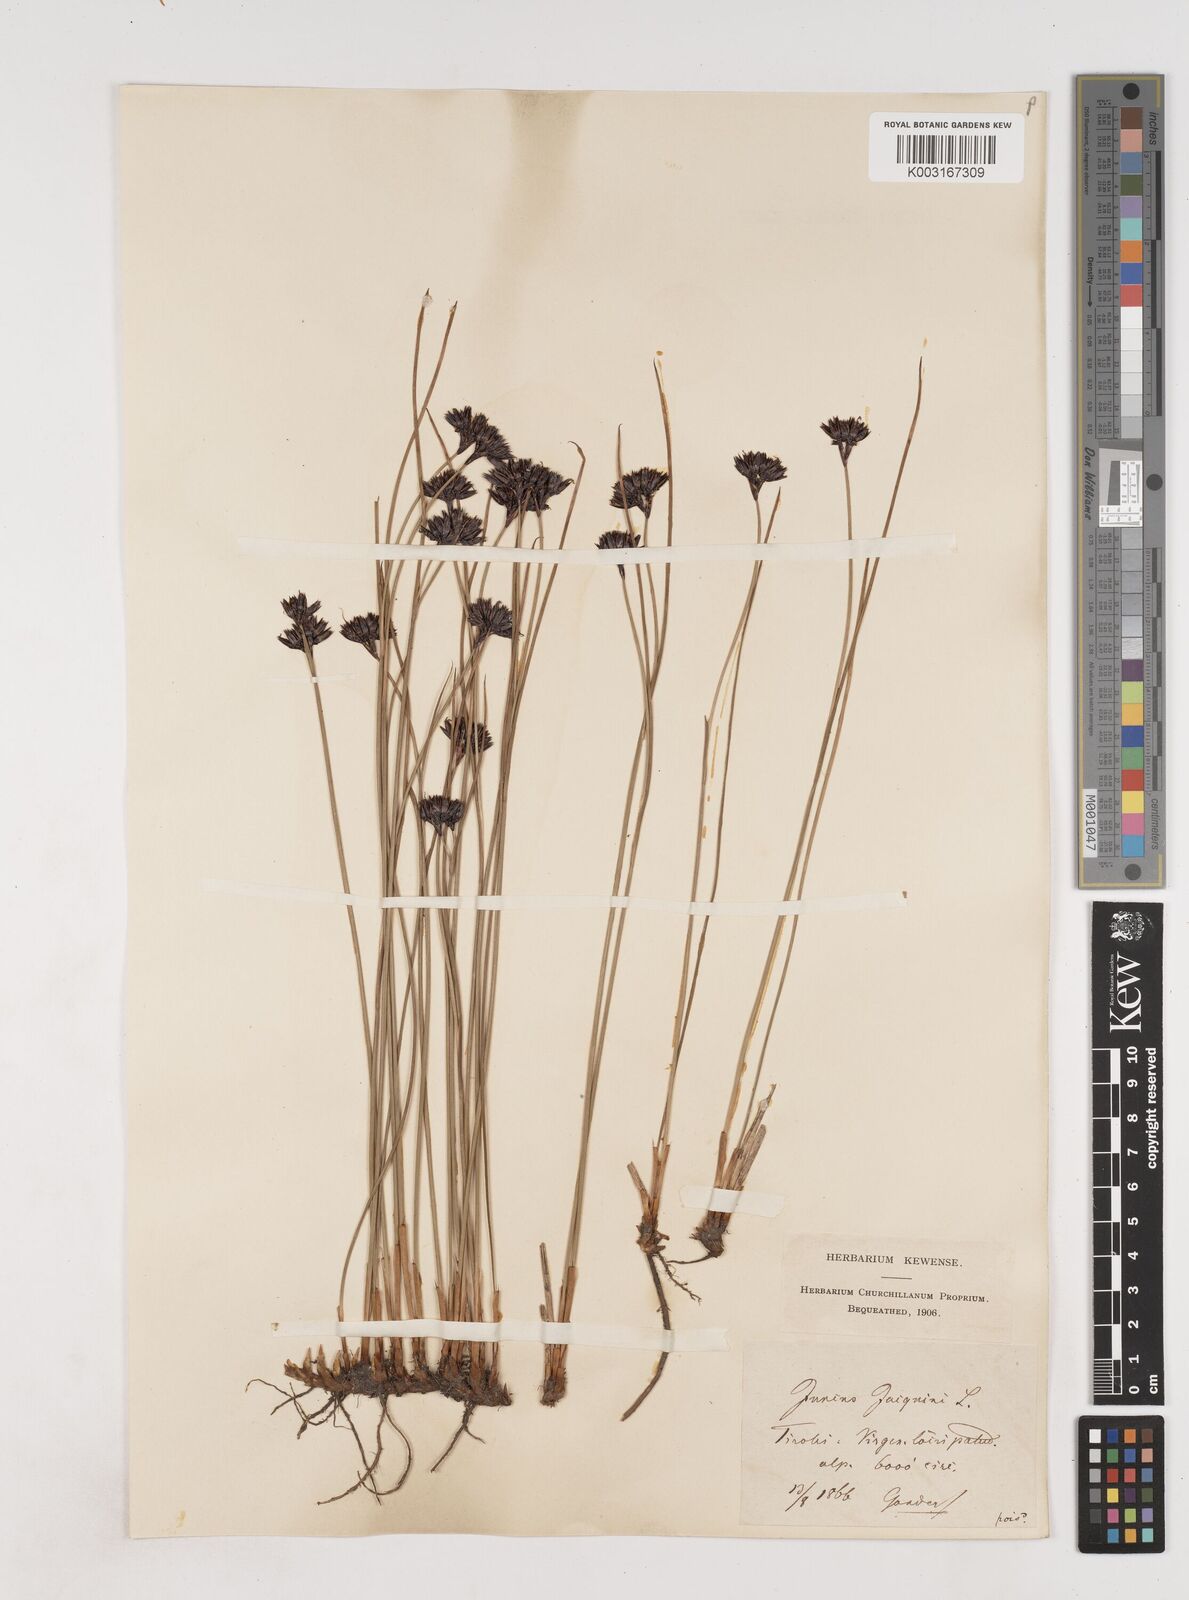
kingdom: Plantae
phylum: Tracheophyta
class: Liliopsida
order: Poales
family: Juncaceae
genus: Juncus
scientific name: Juncus jacquinii
